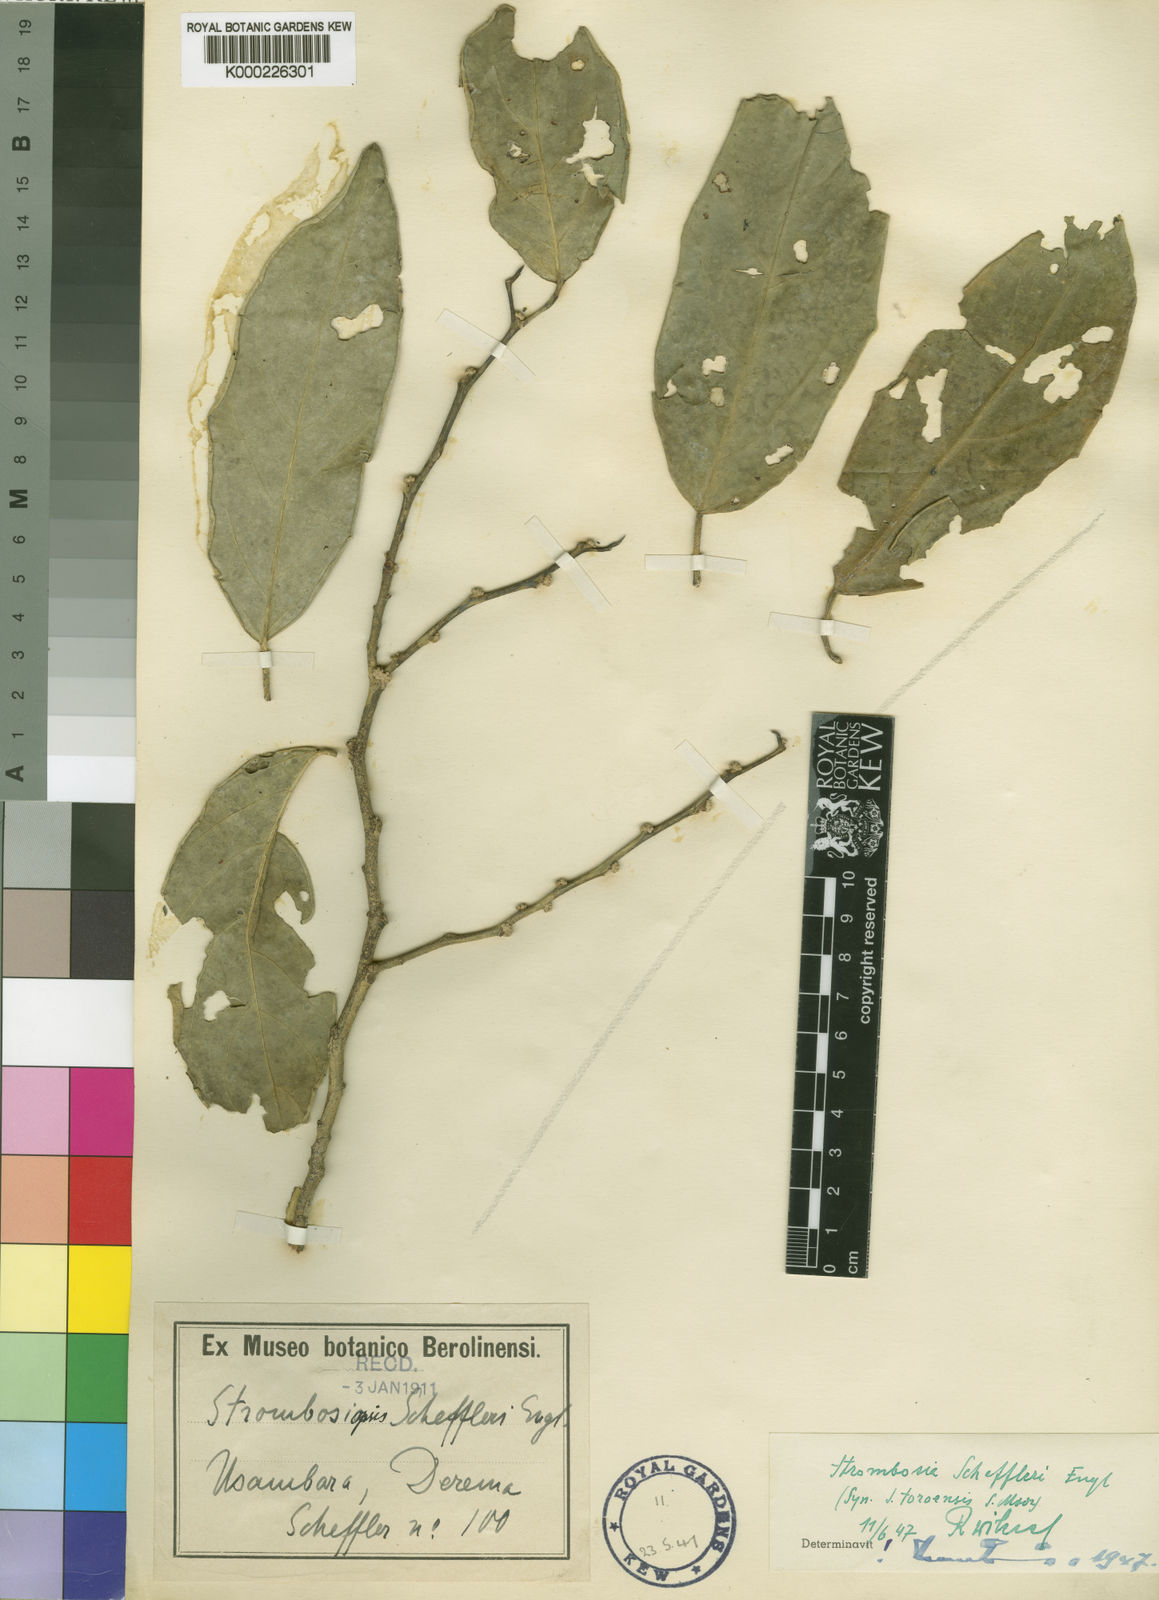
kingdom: Plantae
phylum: Tracheophyta
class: Magnoliopsida
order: Santalales
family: Strombosiaceae
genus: Strombosia
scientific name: Strombosia scheffleri
